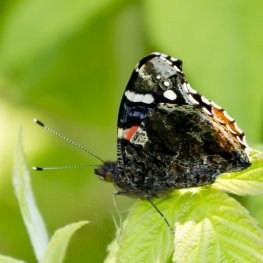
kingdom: Animalia
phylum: Arthropoda
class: Insecta
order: Lepidoptera
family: Nymphalidae
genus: Vanessa
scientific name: Vanessa atalanta
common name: Red Admiral
